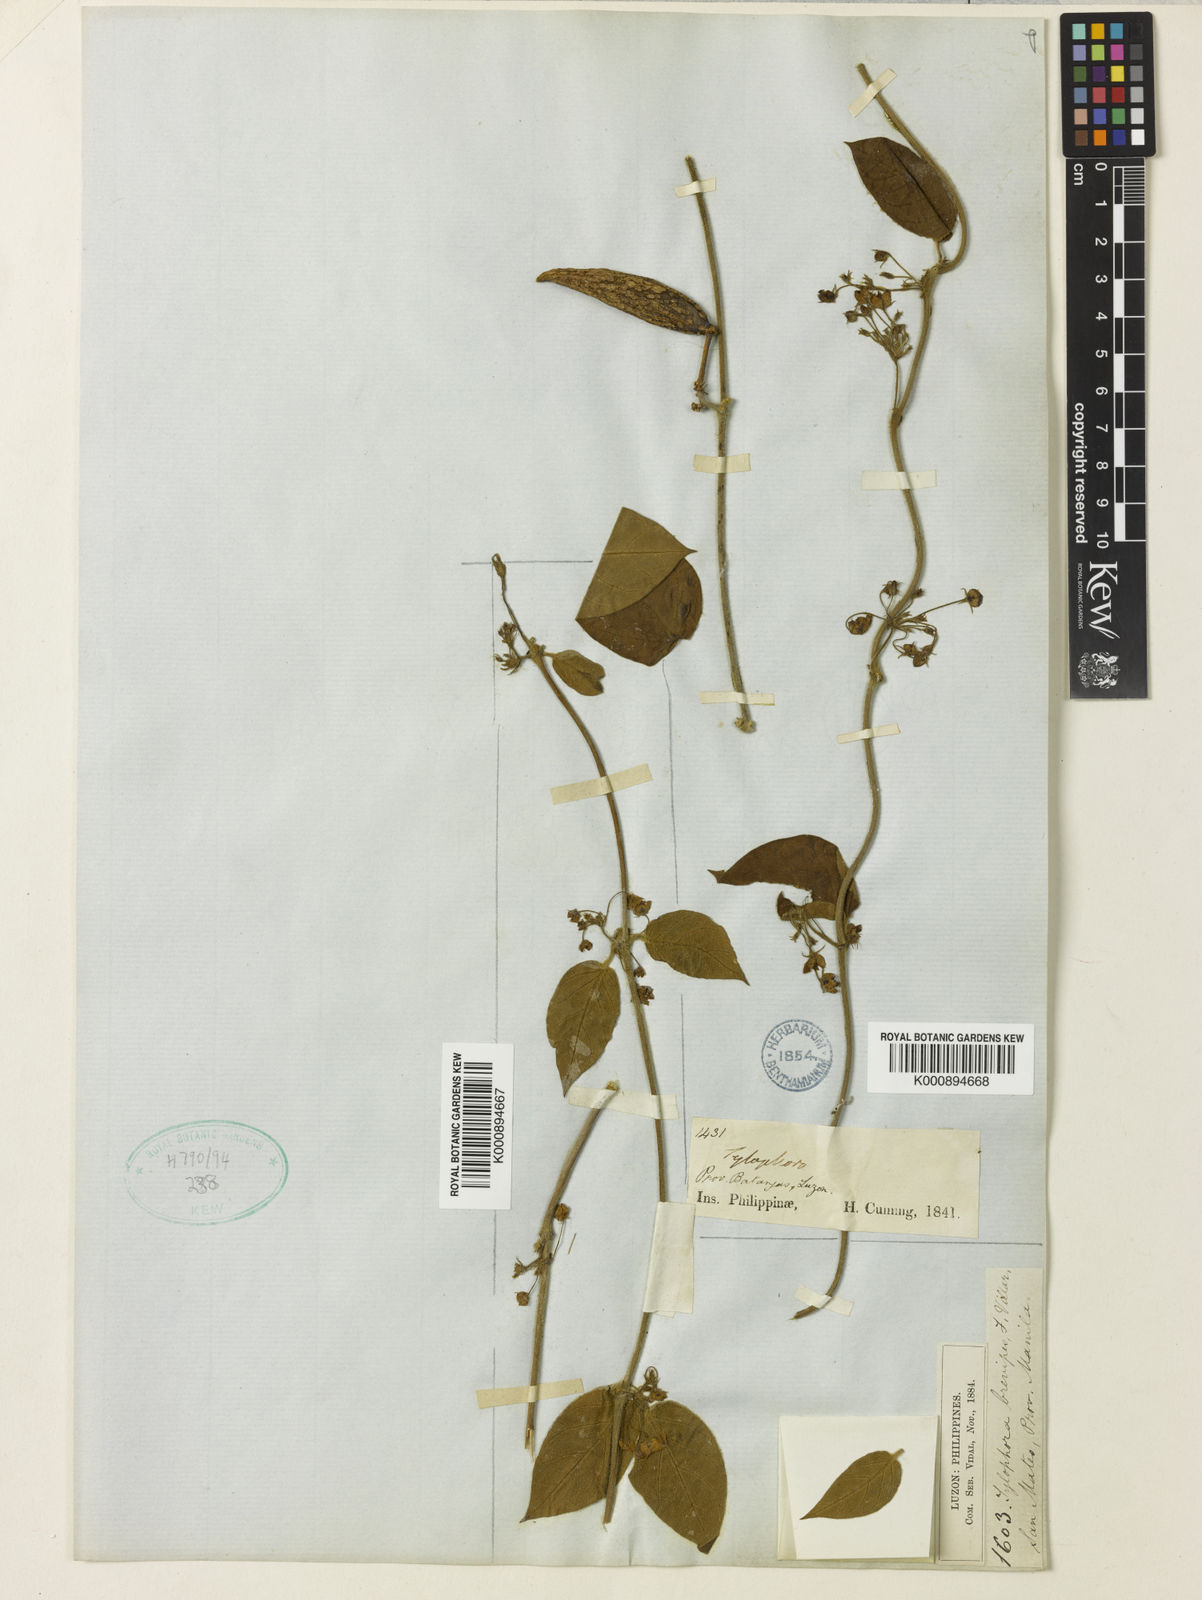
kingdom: Plantae
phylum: Tracheophyta
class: Magnoliopsida
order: Gentianales
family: Apocynaceae
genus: Vincetoxicum
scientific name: Vincetoxicum brevipes
